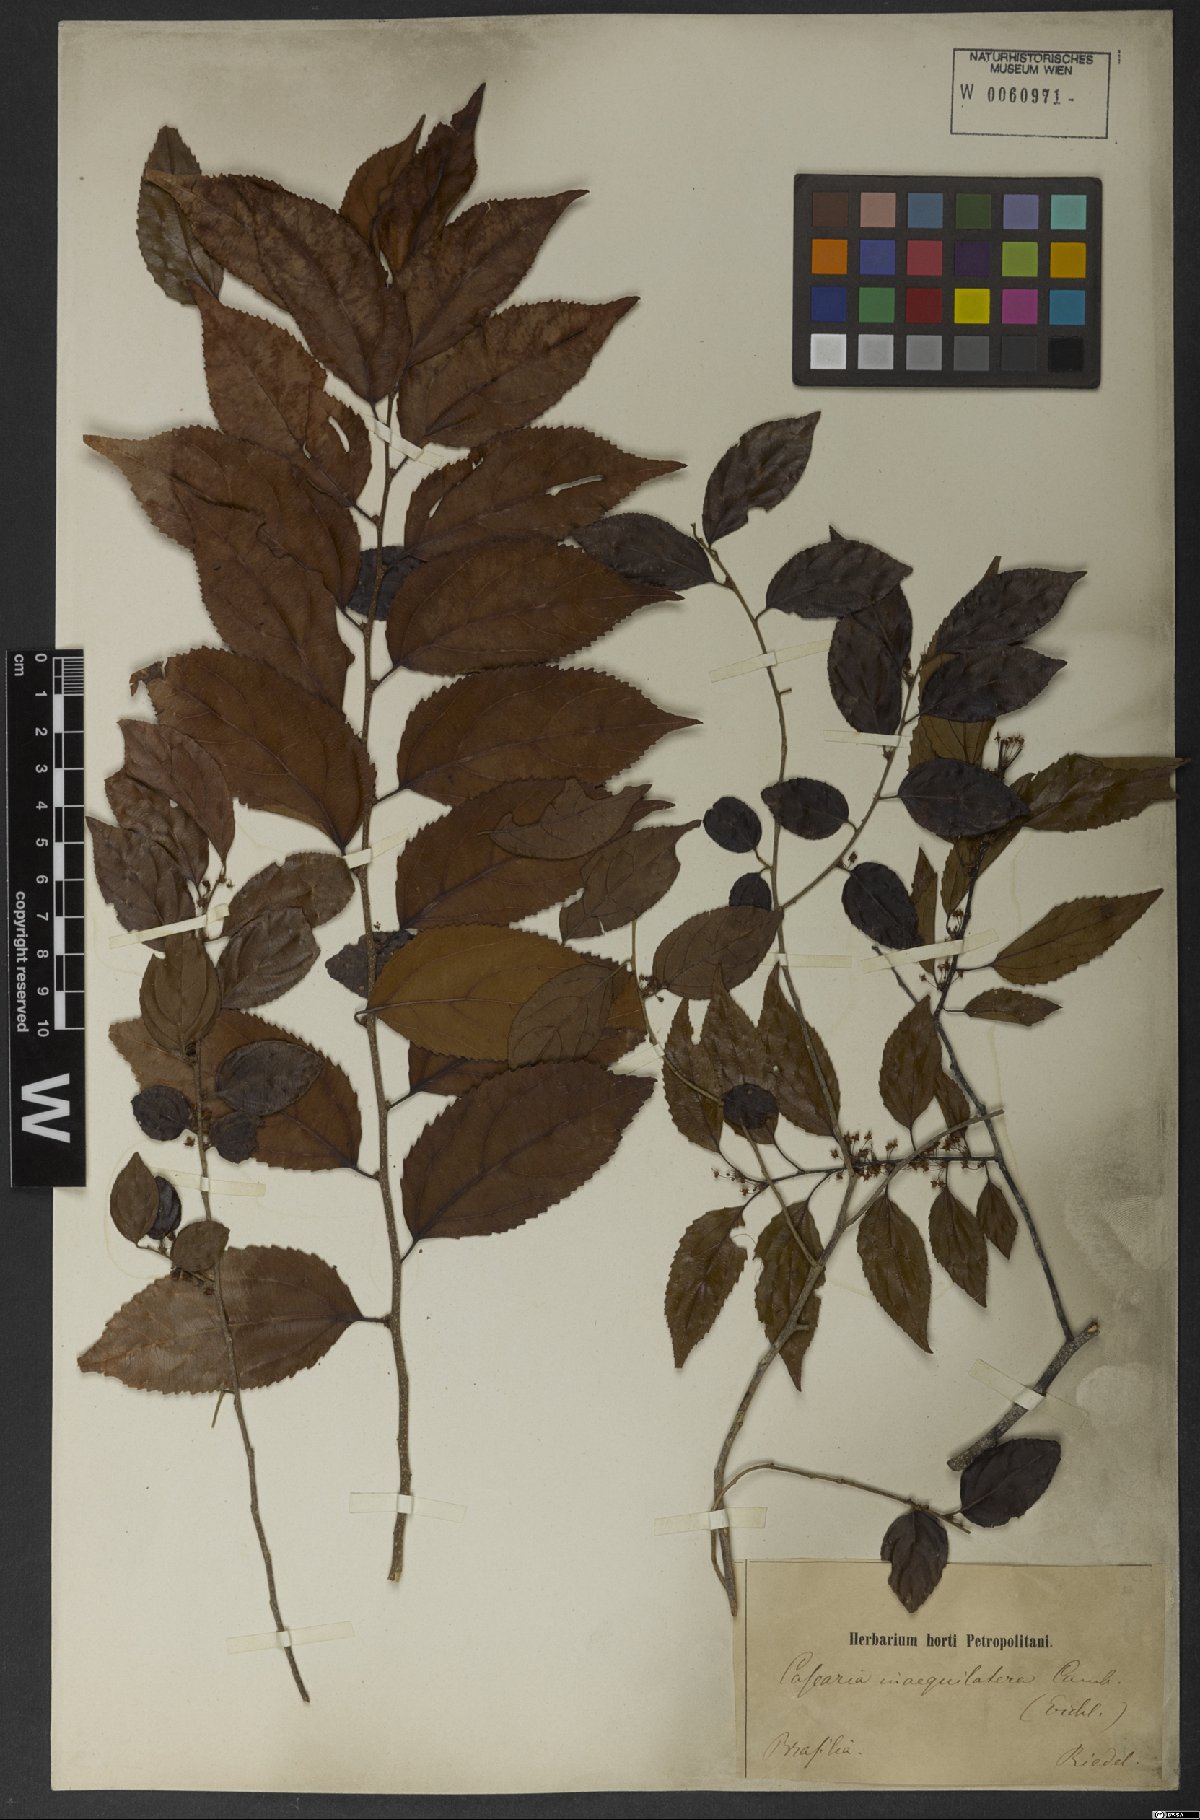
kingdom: Plantae
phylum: Tracheophyta
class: Magnoliopsida
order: Malpighiales
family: Salicaceae
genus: Casearia
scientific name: Casearia obliqua
